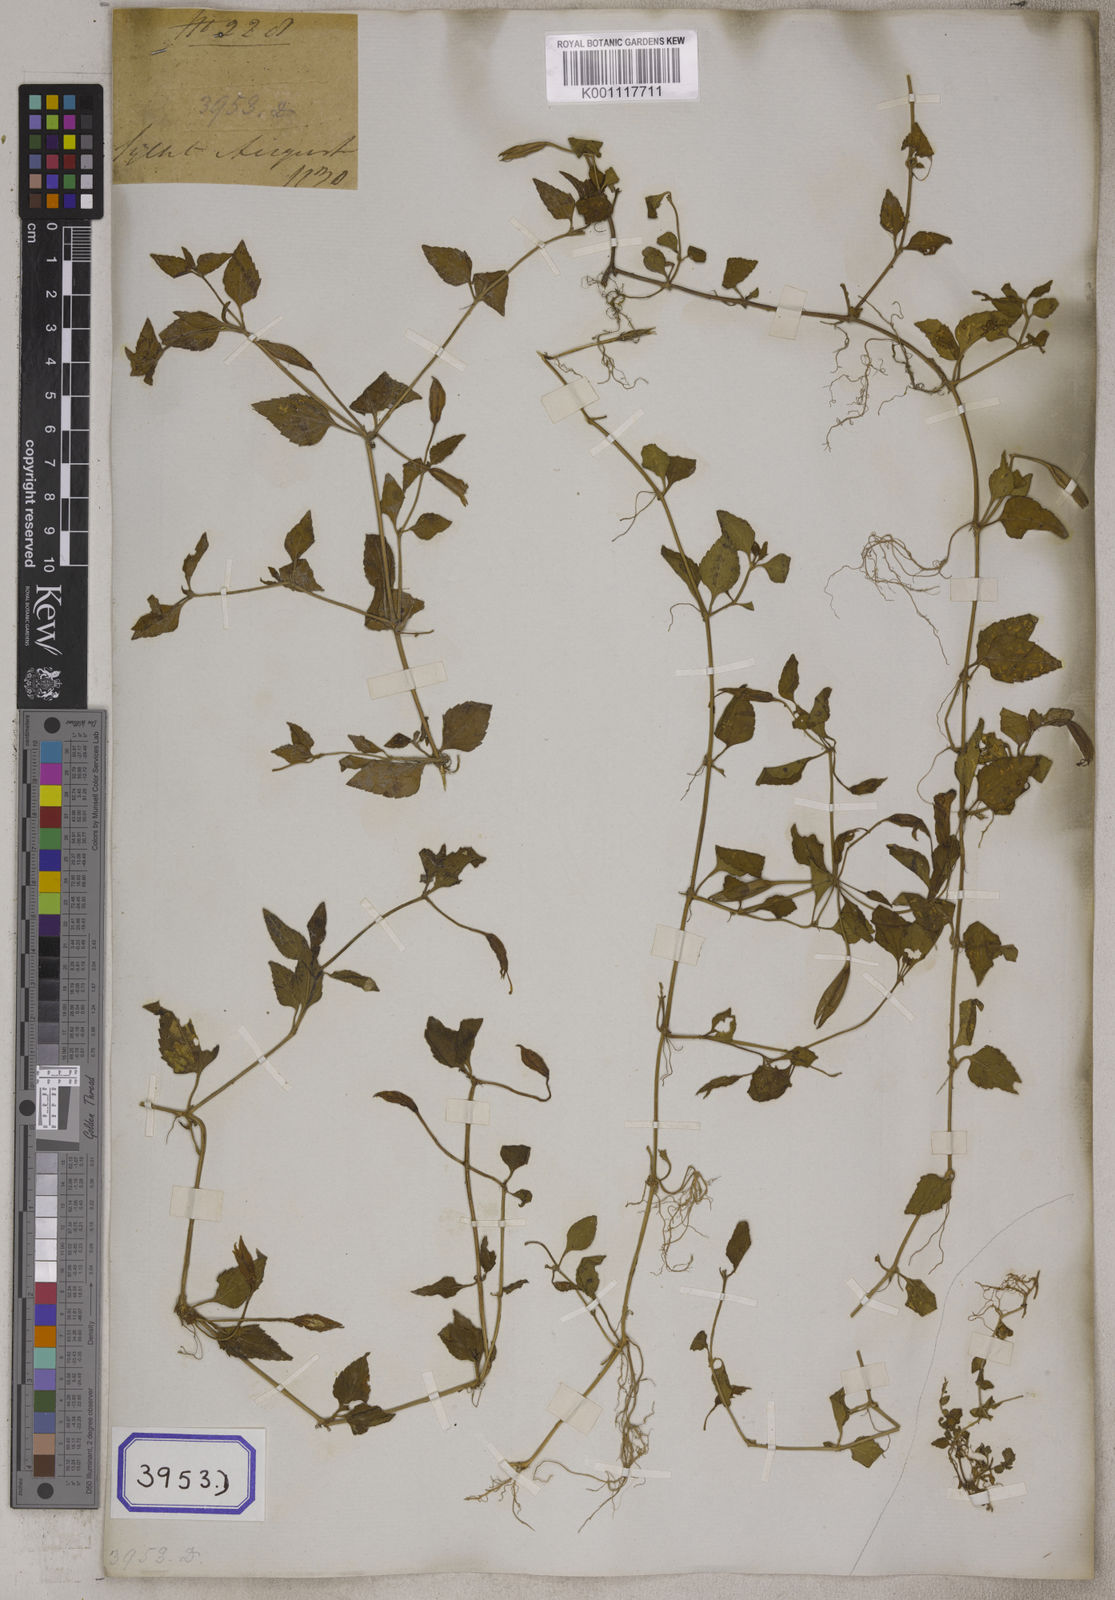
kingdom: Plantae
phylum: Tracheophyta
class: Magnoliopsida
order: Lamiales
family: Linderniaceae
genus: Torenia
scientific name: Torenia asiatica
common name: Wishbone flower
